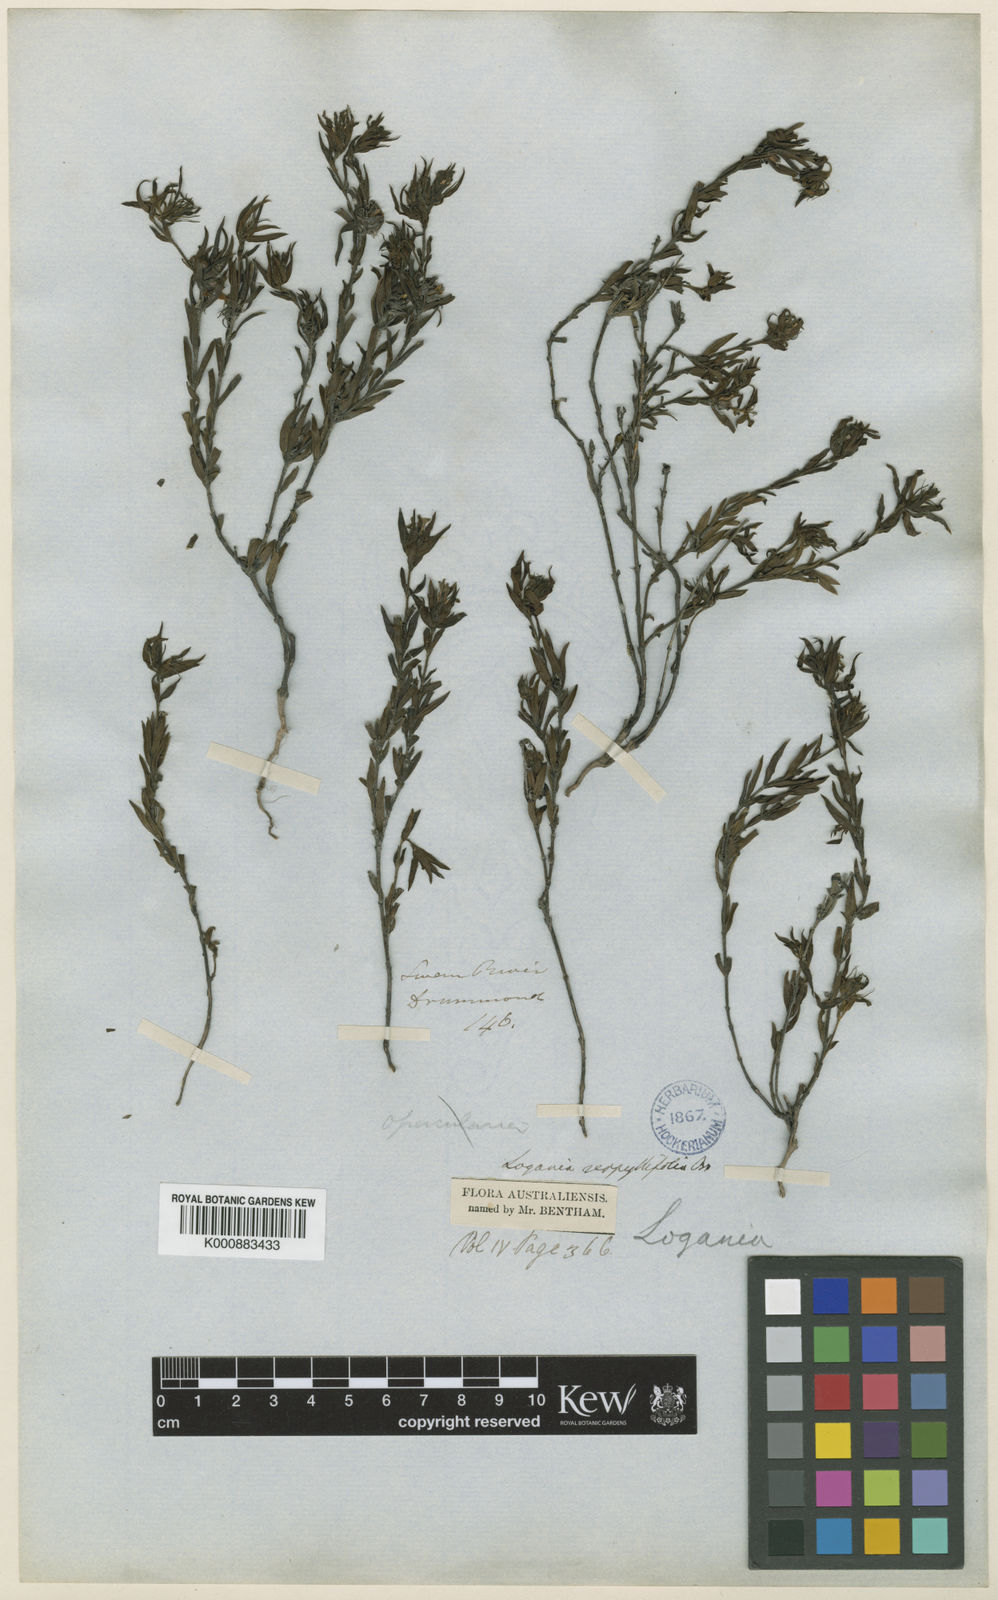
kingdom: Plantae
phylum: Tracheophyta
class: Magnoliopsida
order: Gentianales
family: Loganiaceae
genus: Orianthera
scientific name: Orianthera serpyllifolia
